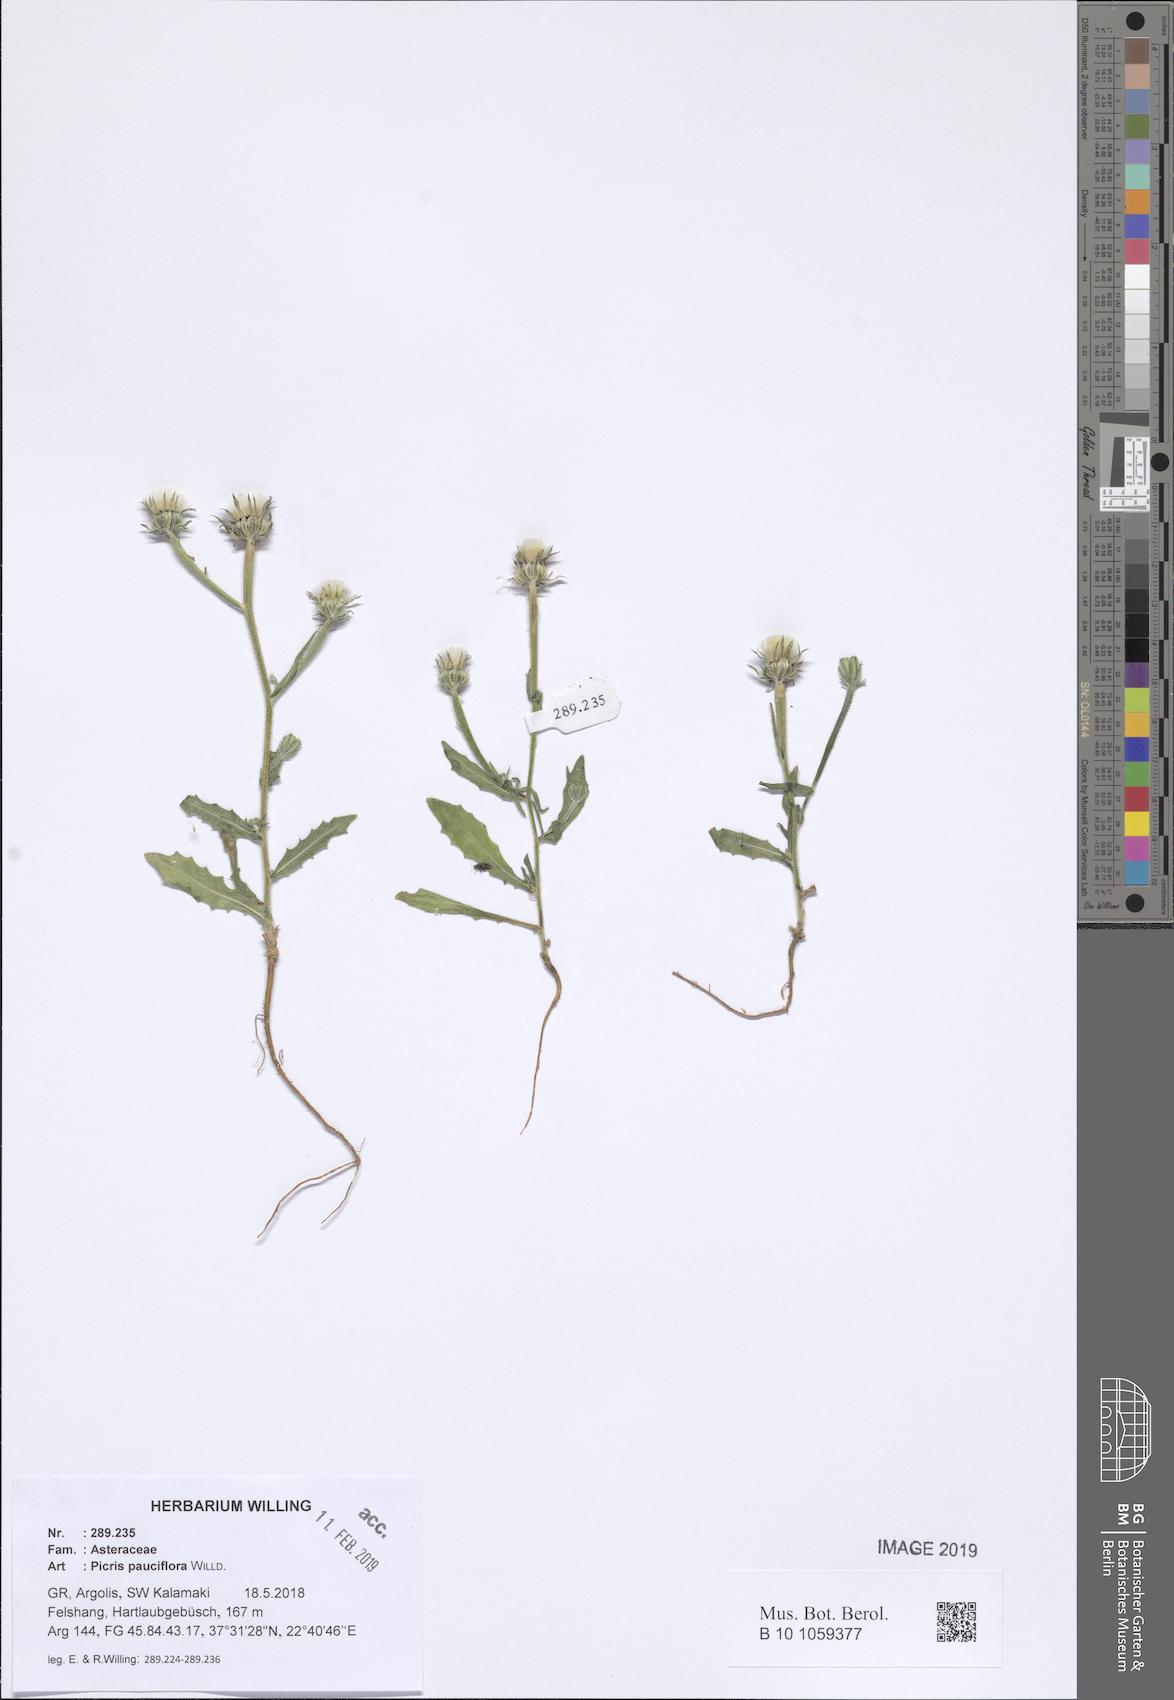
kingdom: Plantae
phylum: Tracheophyta
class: Magnoliopsida
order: Asterales
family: Asteraceae
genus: Picris
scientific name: Picris pauciflora
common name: Smallflower oxtongue
